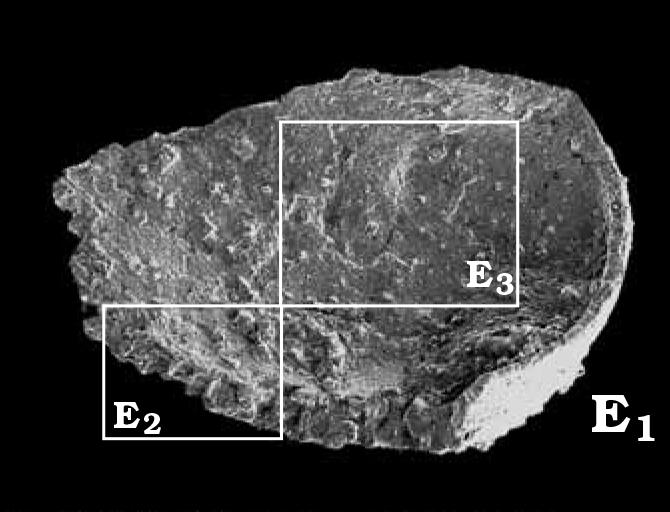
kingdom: Animalia
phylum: Arthropoda
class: Ostracoda
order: Palaeocopida
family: Oepikellidae
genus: Lavachilina
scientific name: Lavachilina evae
